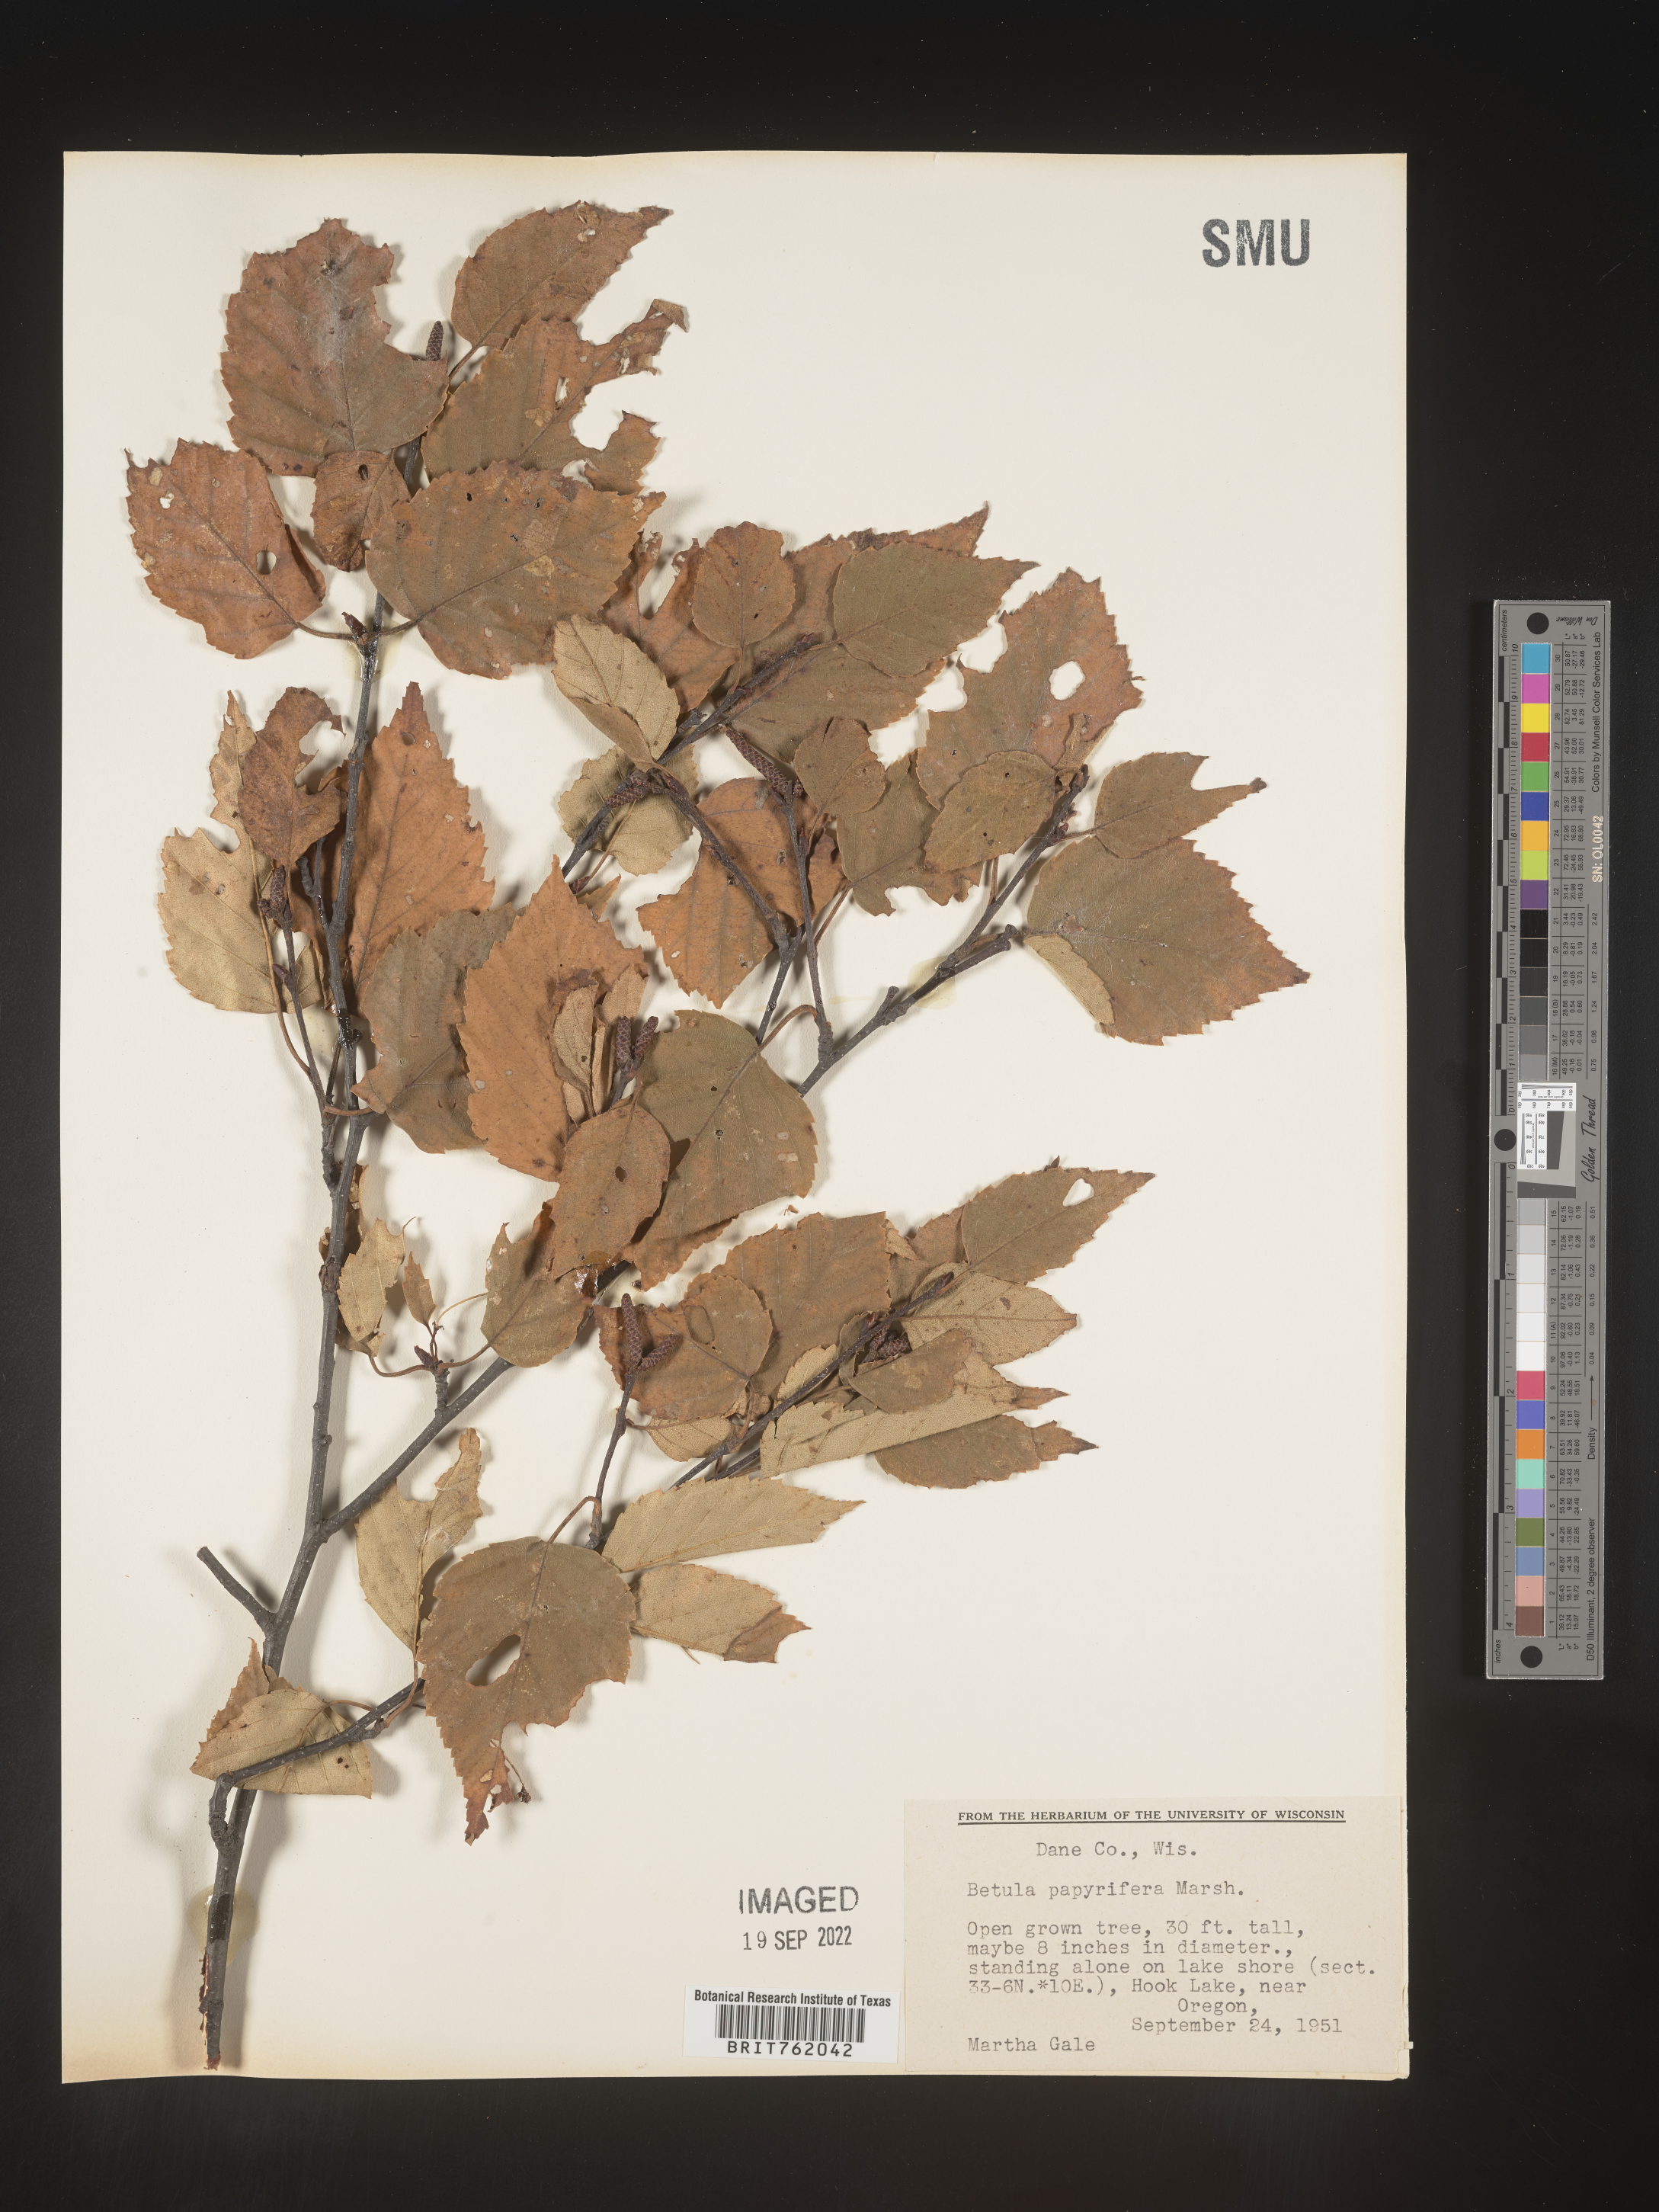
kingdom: Plantae
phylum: Tracheophyta
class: Magnoliopsida
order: Fagales
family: Betulaceae
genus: Betula
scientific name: Betula papyrifera
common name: Paper birch
